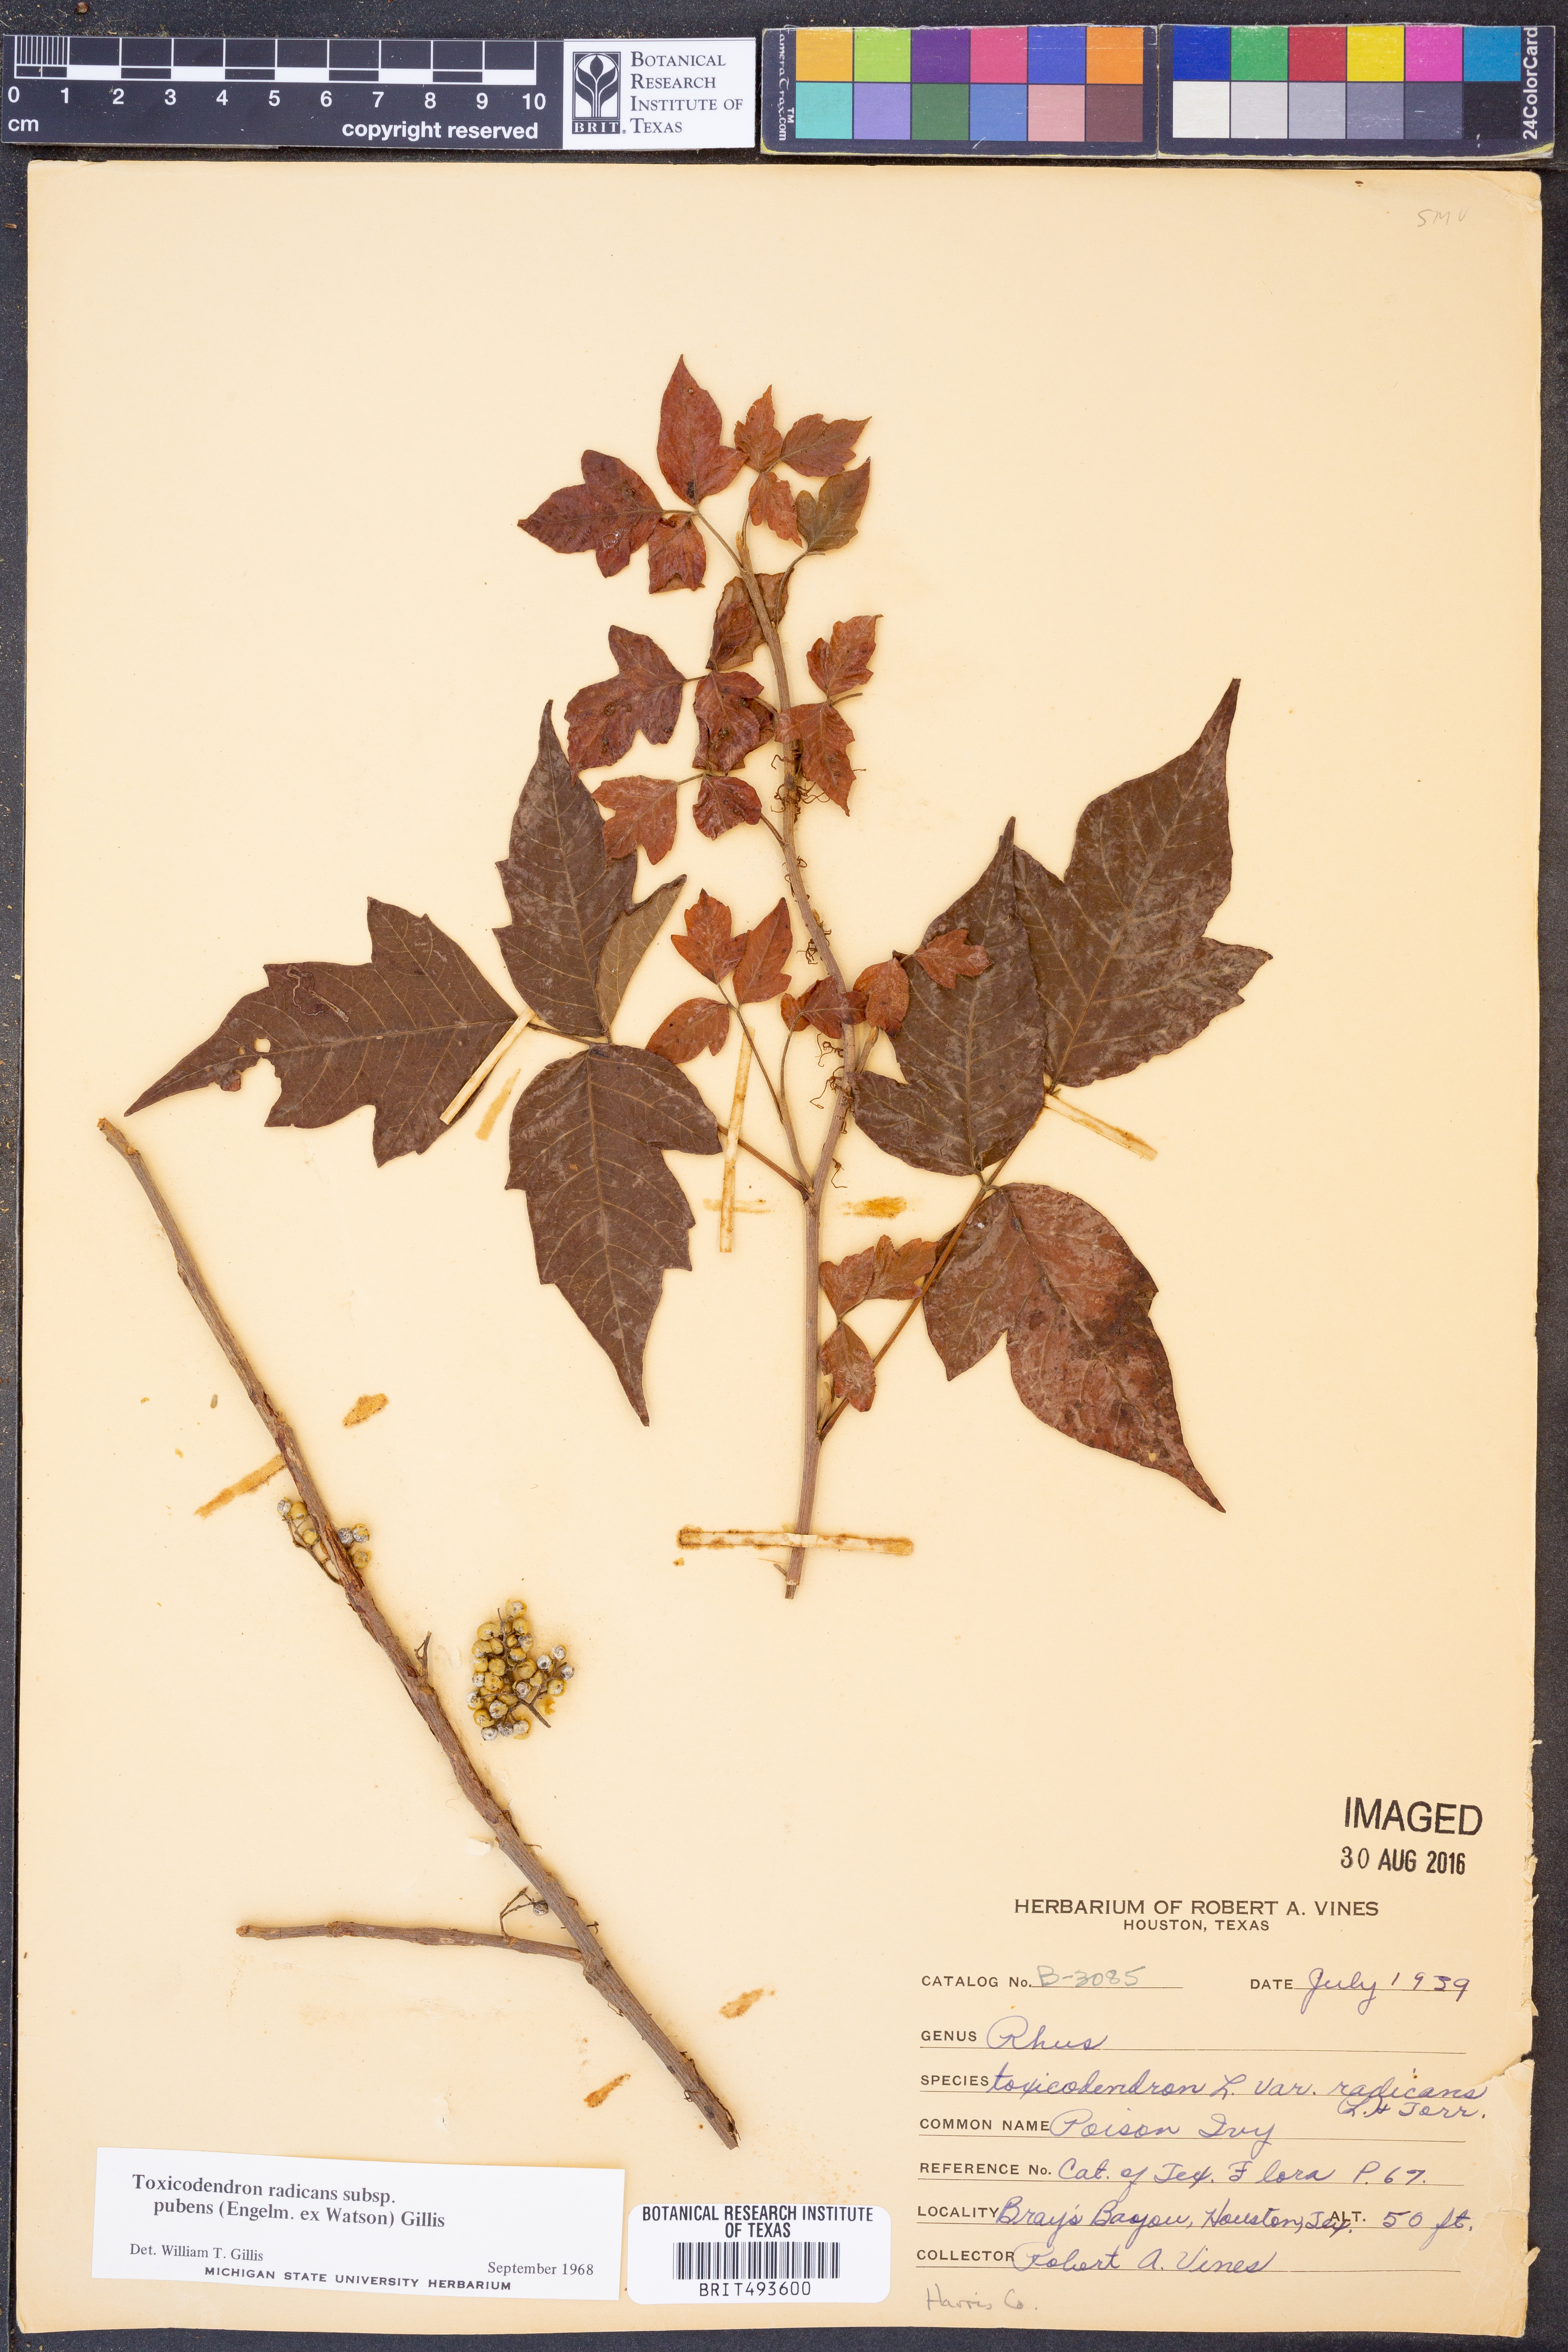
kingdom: Plantae
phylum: Tracheophyta
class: Magnoliopsida
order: Sapindales
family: Anacardiaceae
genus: Toxicodendron
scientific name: Toxicodendron radicans
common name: Poison ivy
